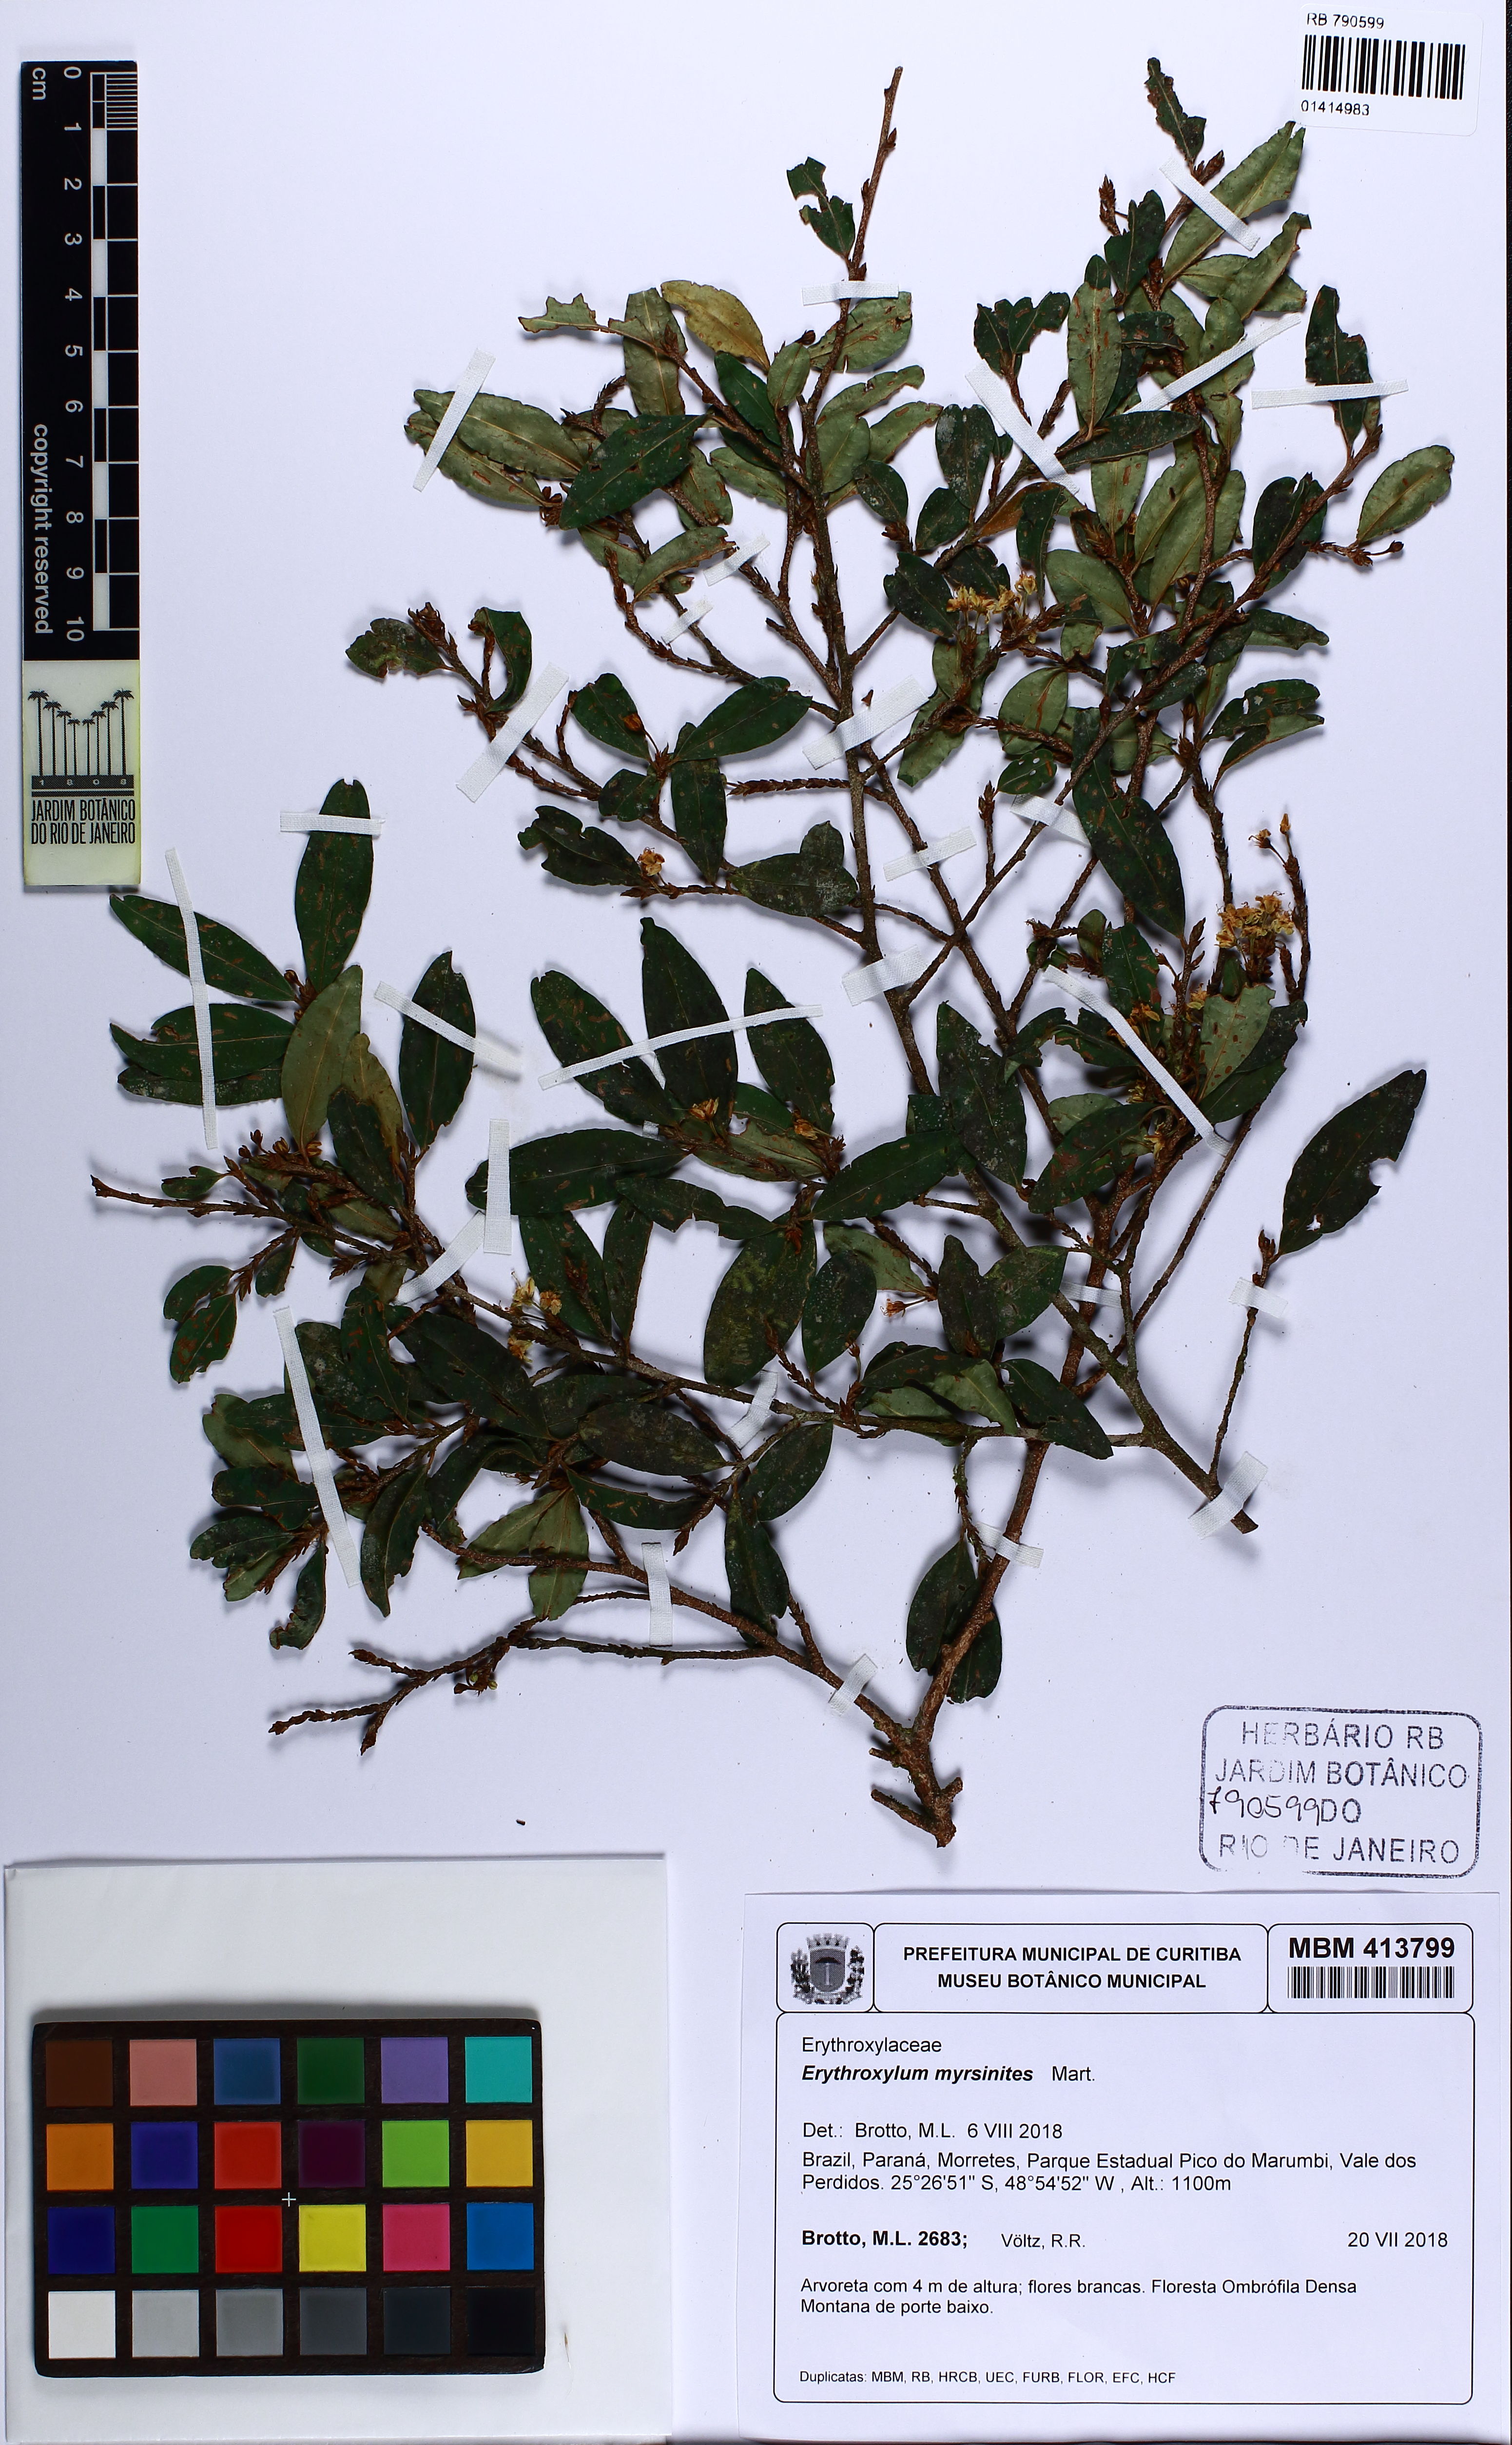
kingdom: Plantae
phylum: Tracheophyta
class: Magnoliopsida
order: Malpighiales
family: Erythroxylaceae
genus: Erythroxylum
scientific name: Erythroxylum myrsinites
